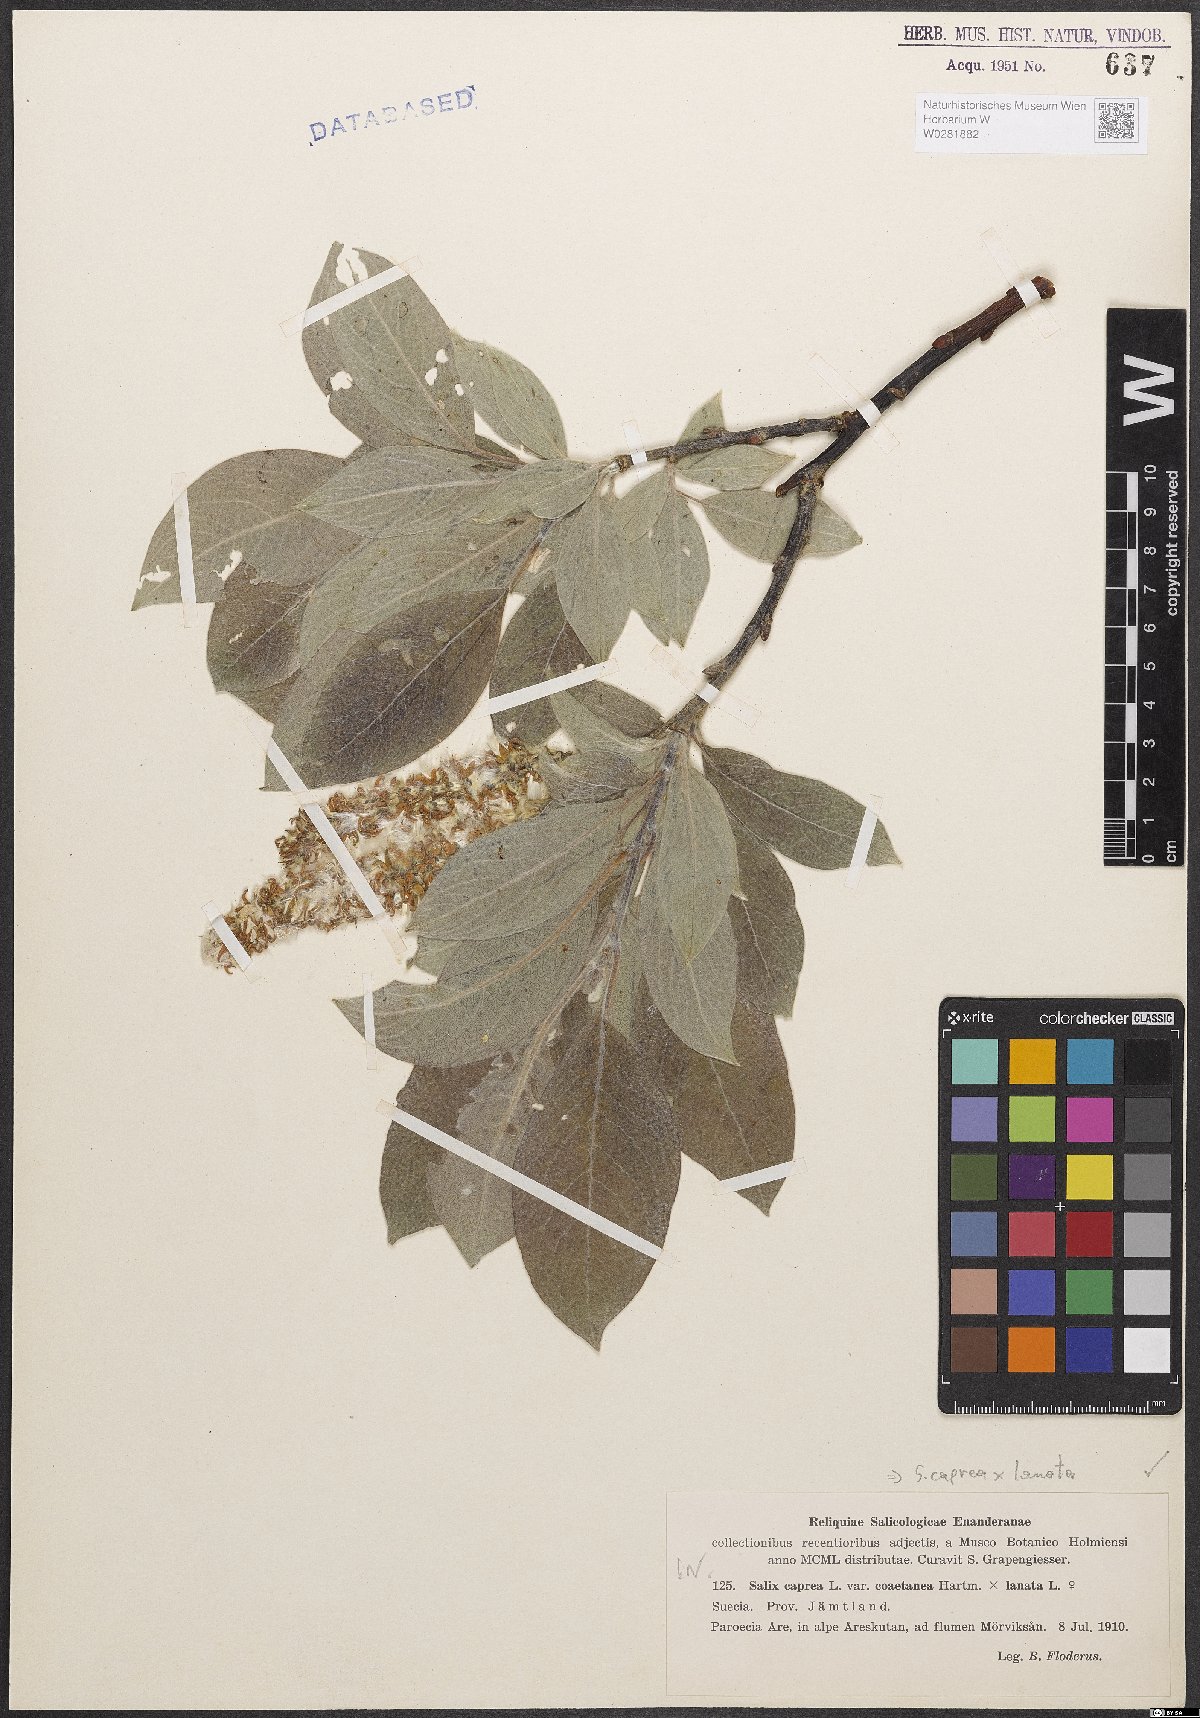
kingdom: Plantae
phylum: Tracheophyta
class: Magnoliopsida
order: Malpighiales
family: Salicaceae
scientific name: Salicaceae
